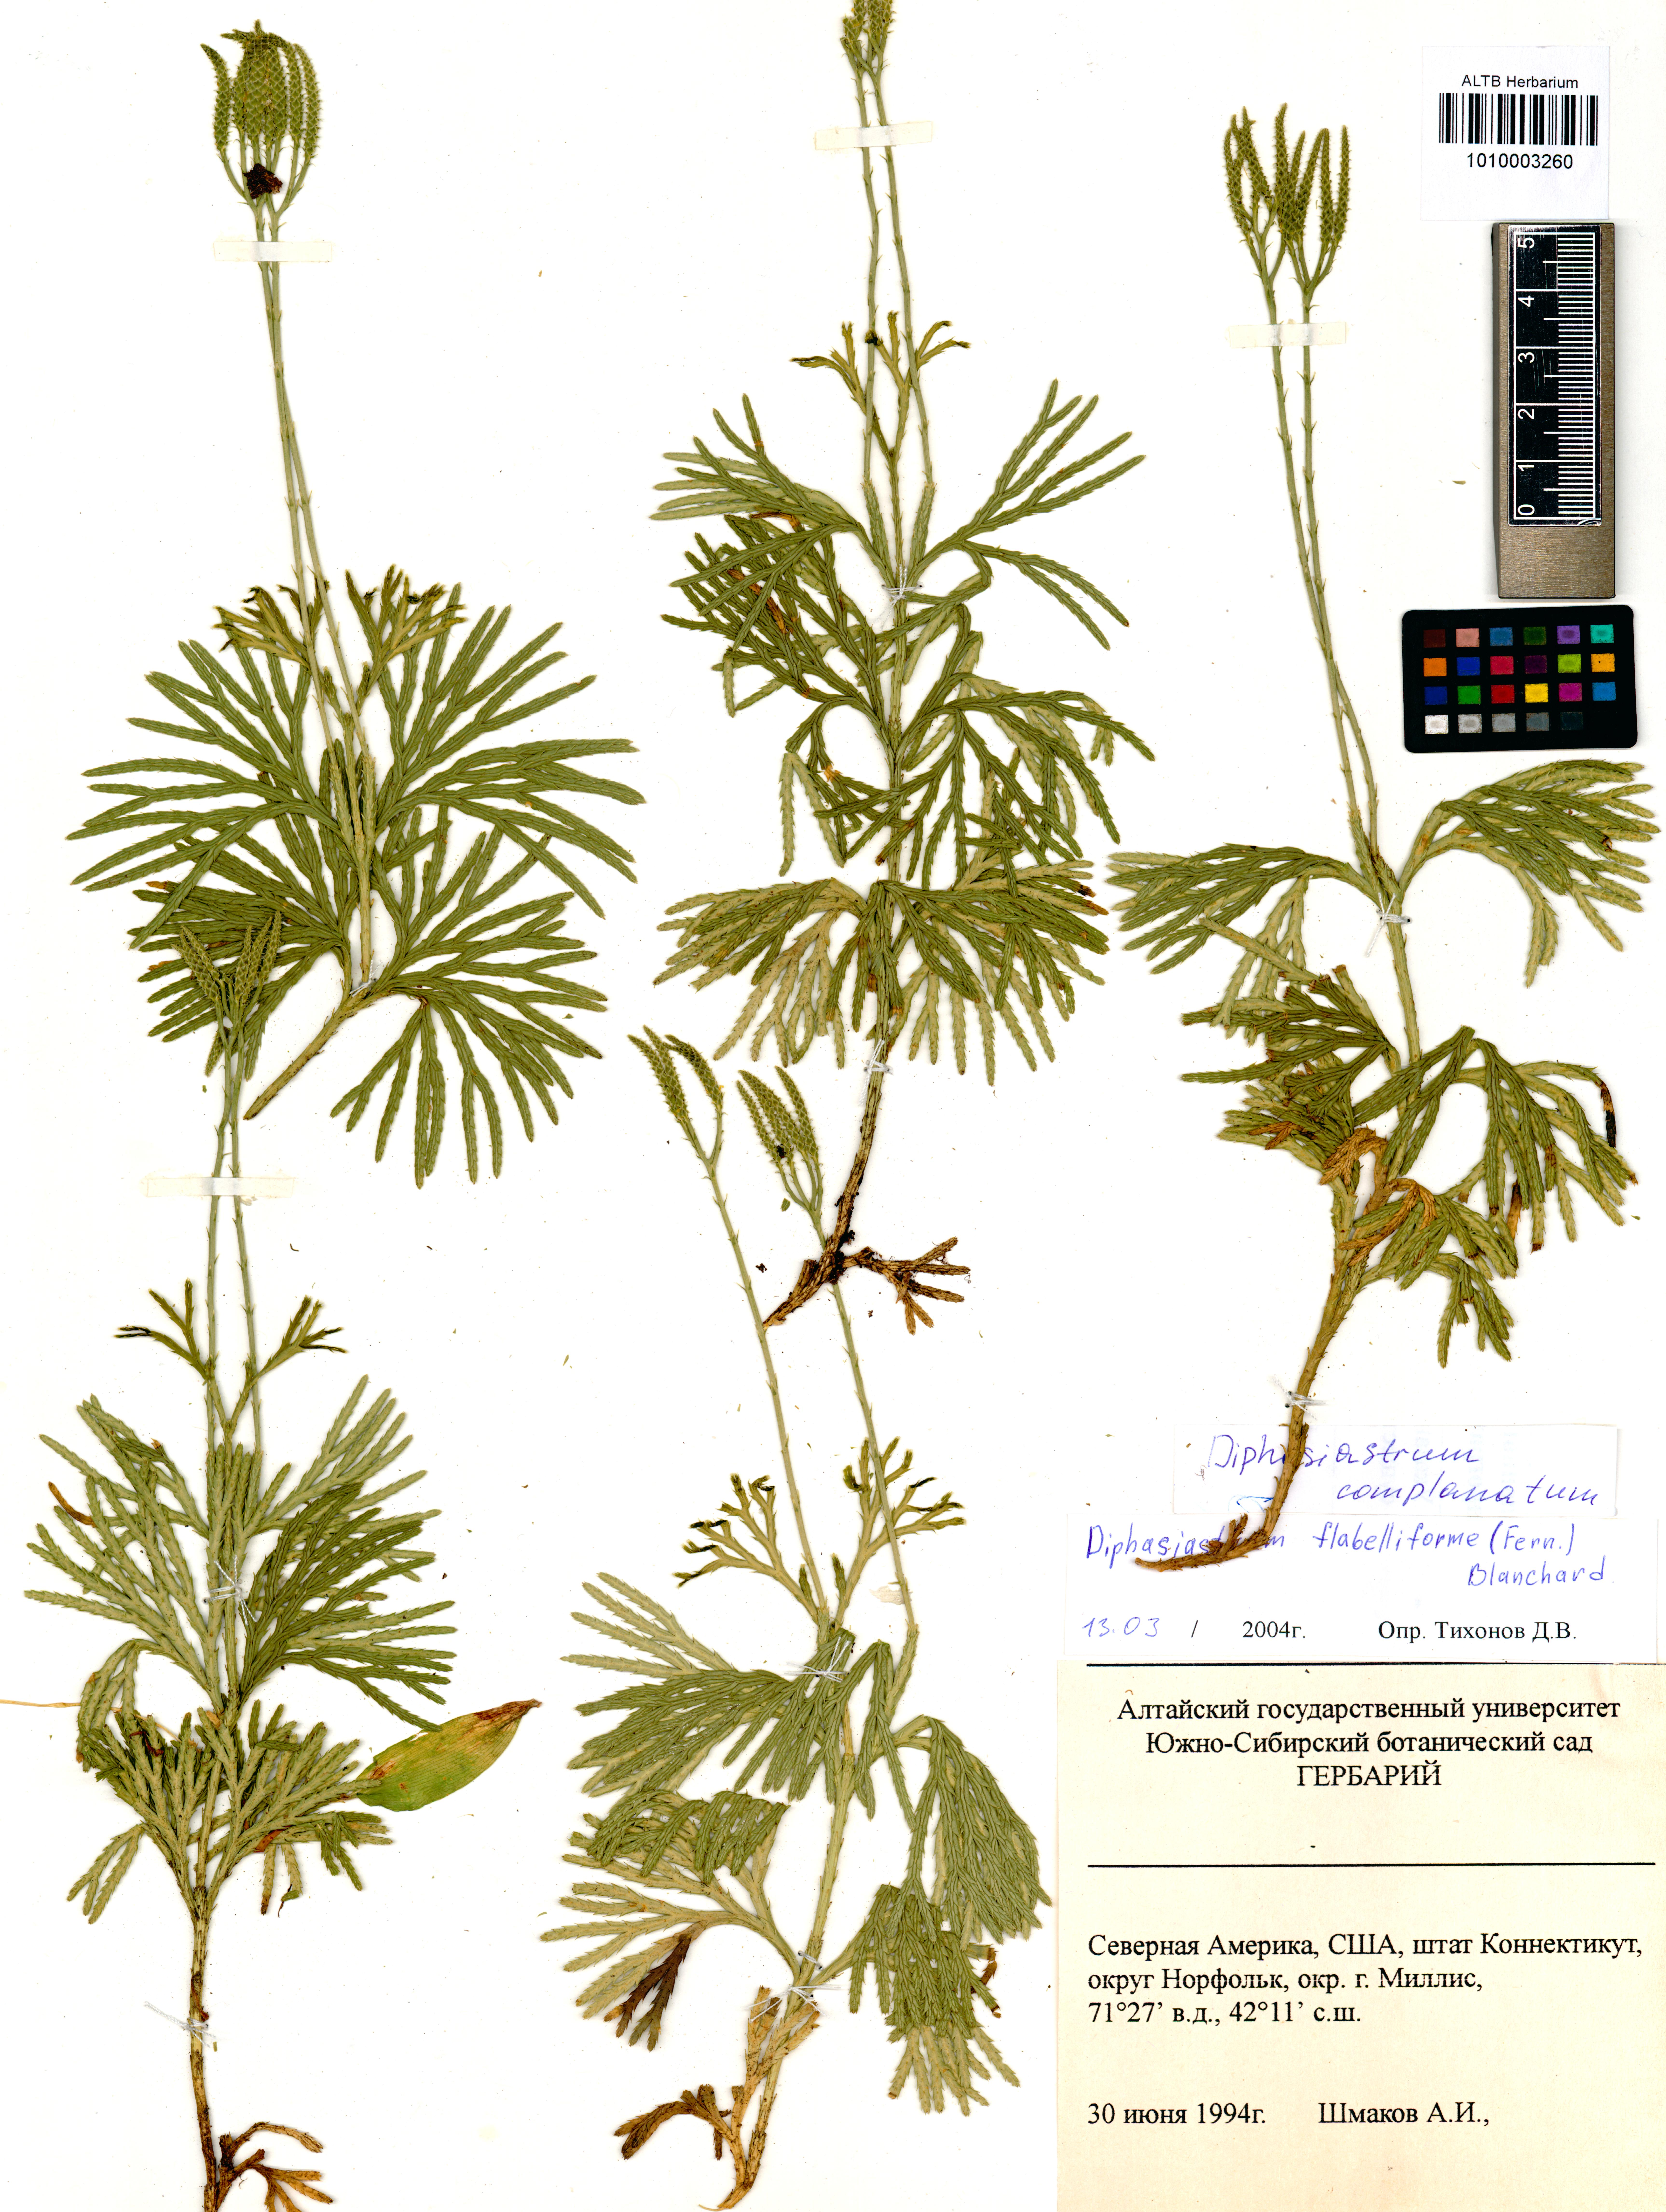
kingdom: Plantae
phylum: Tracheophyta
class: Lycopodiopsida
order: Lycopodiales
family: Lycopodiaceae
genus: Diphasiastrum
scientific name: Diphasiastrum complanatum
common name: Northern running-pine
